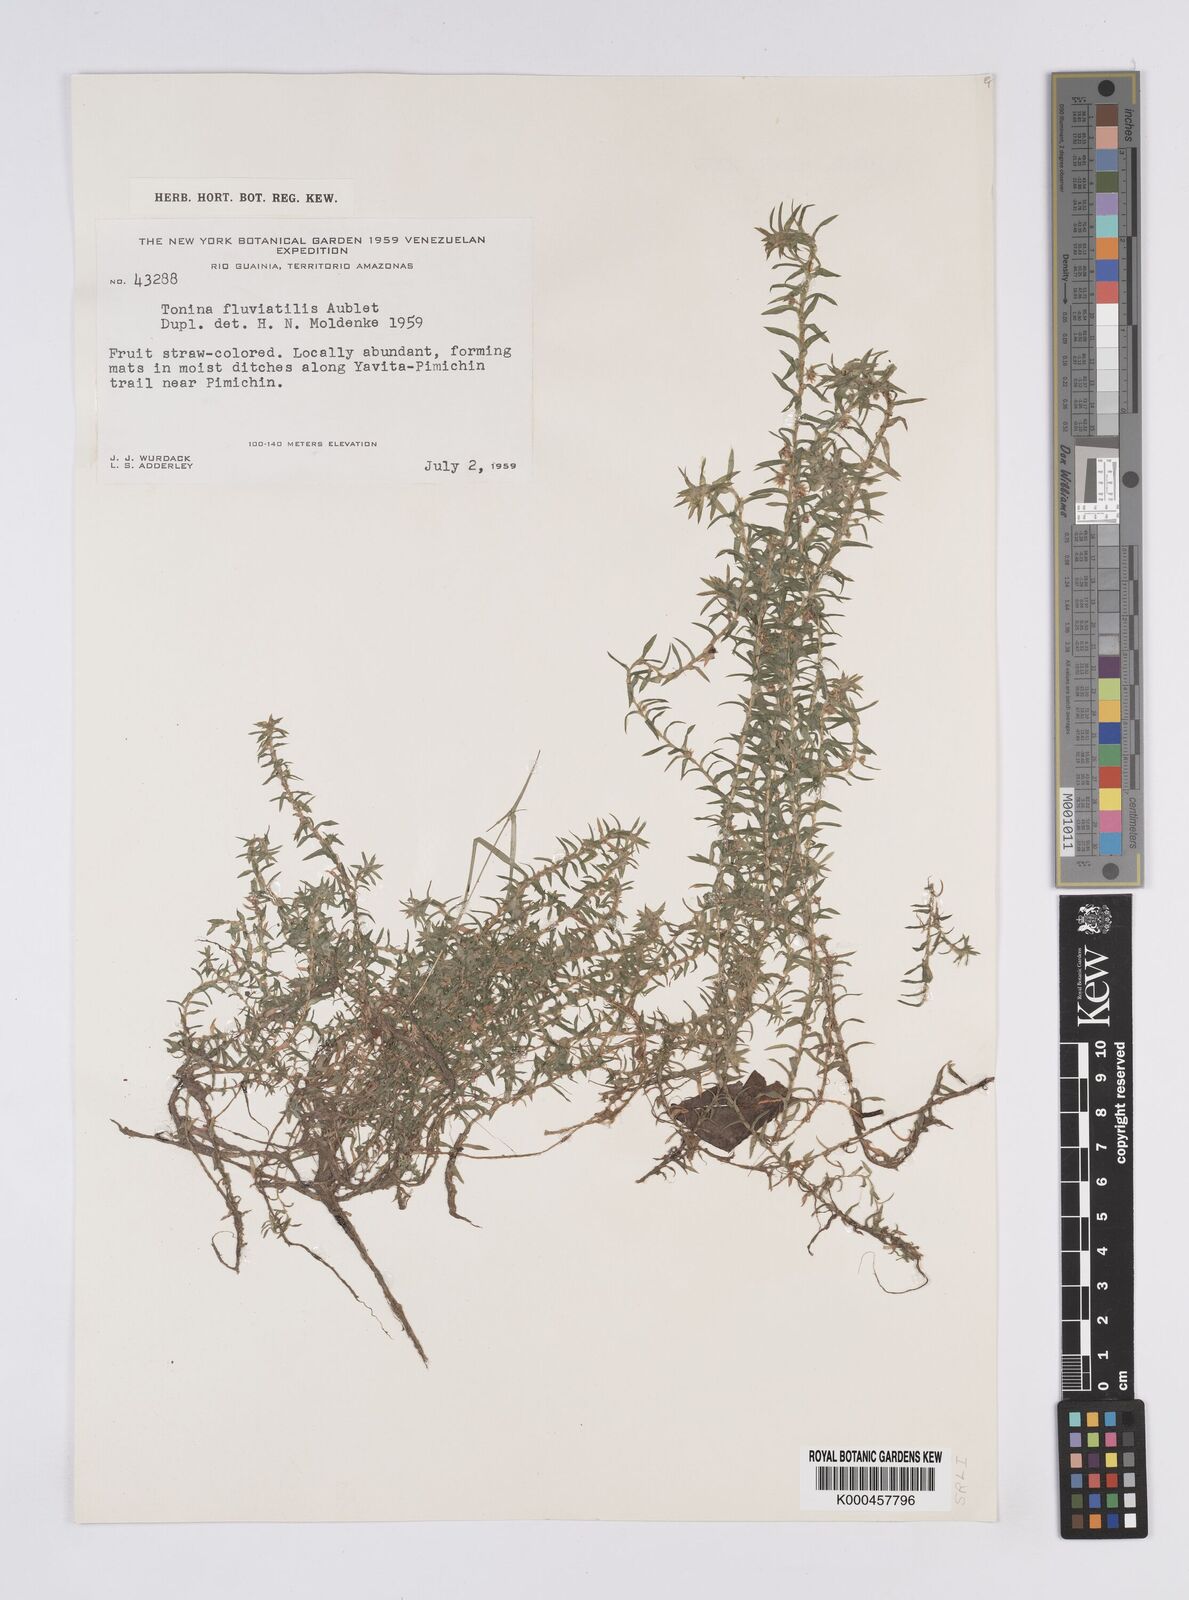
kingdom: Plantae
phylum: Tracheophyta
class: Liliopsida
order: Poales
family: Eriocaulaceae
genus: Paepalanthus
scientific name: Paepalanthus fluviatilis
